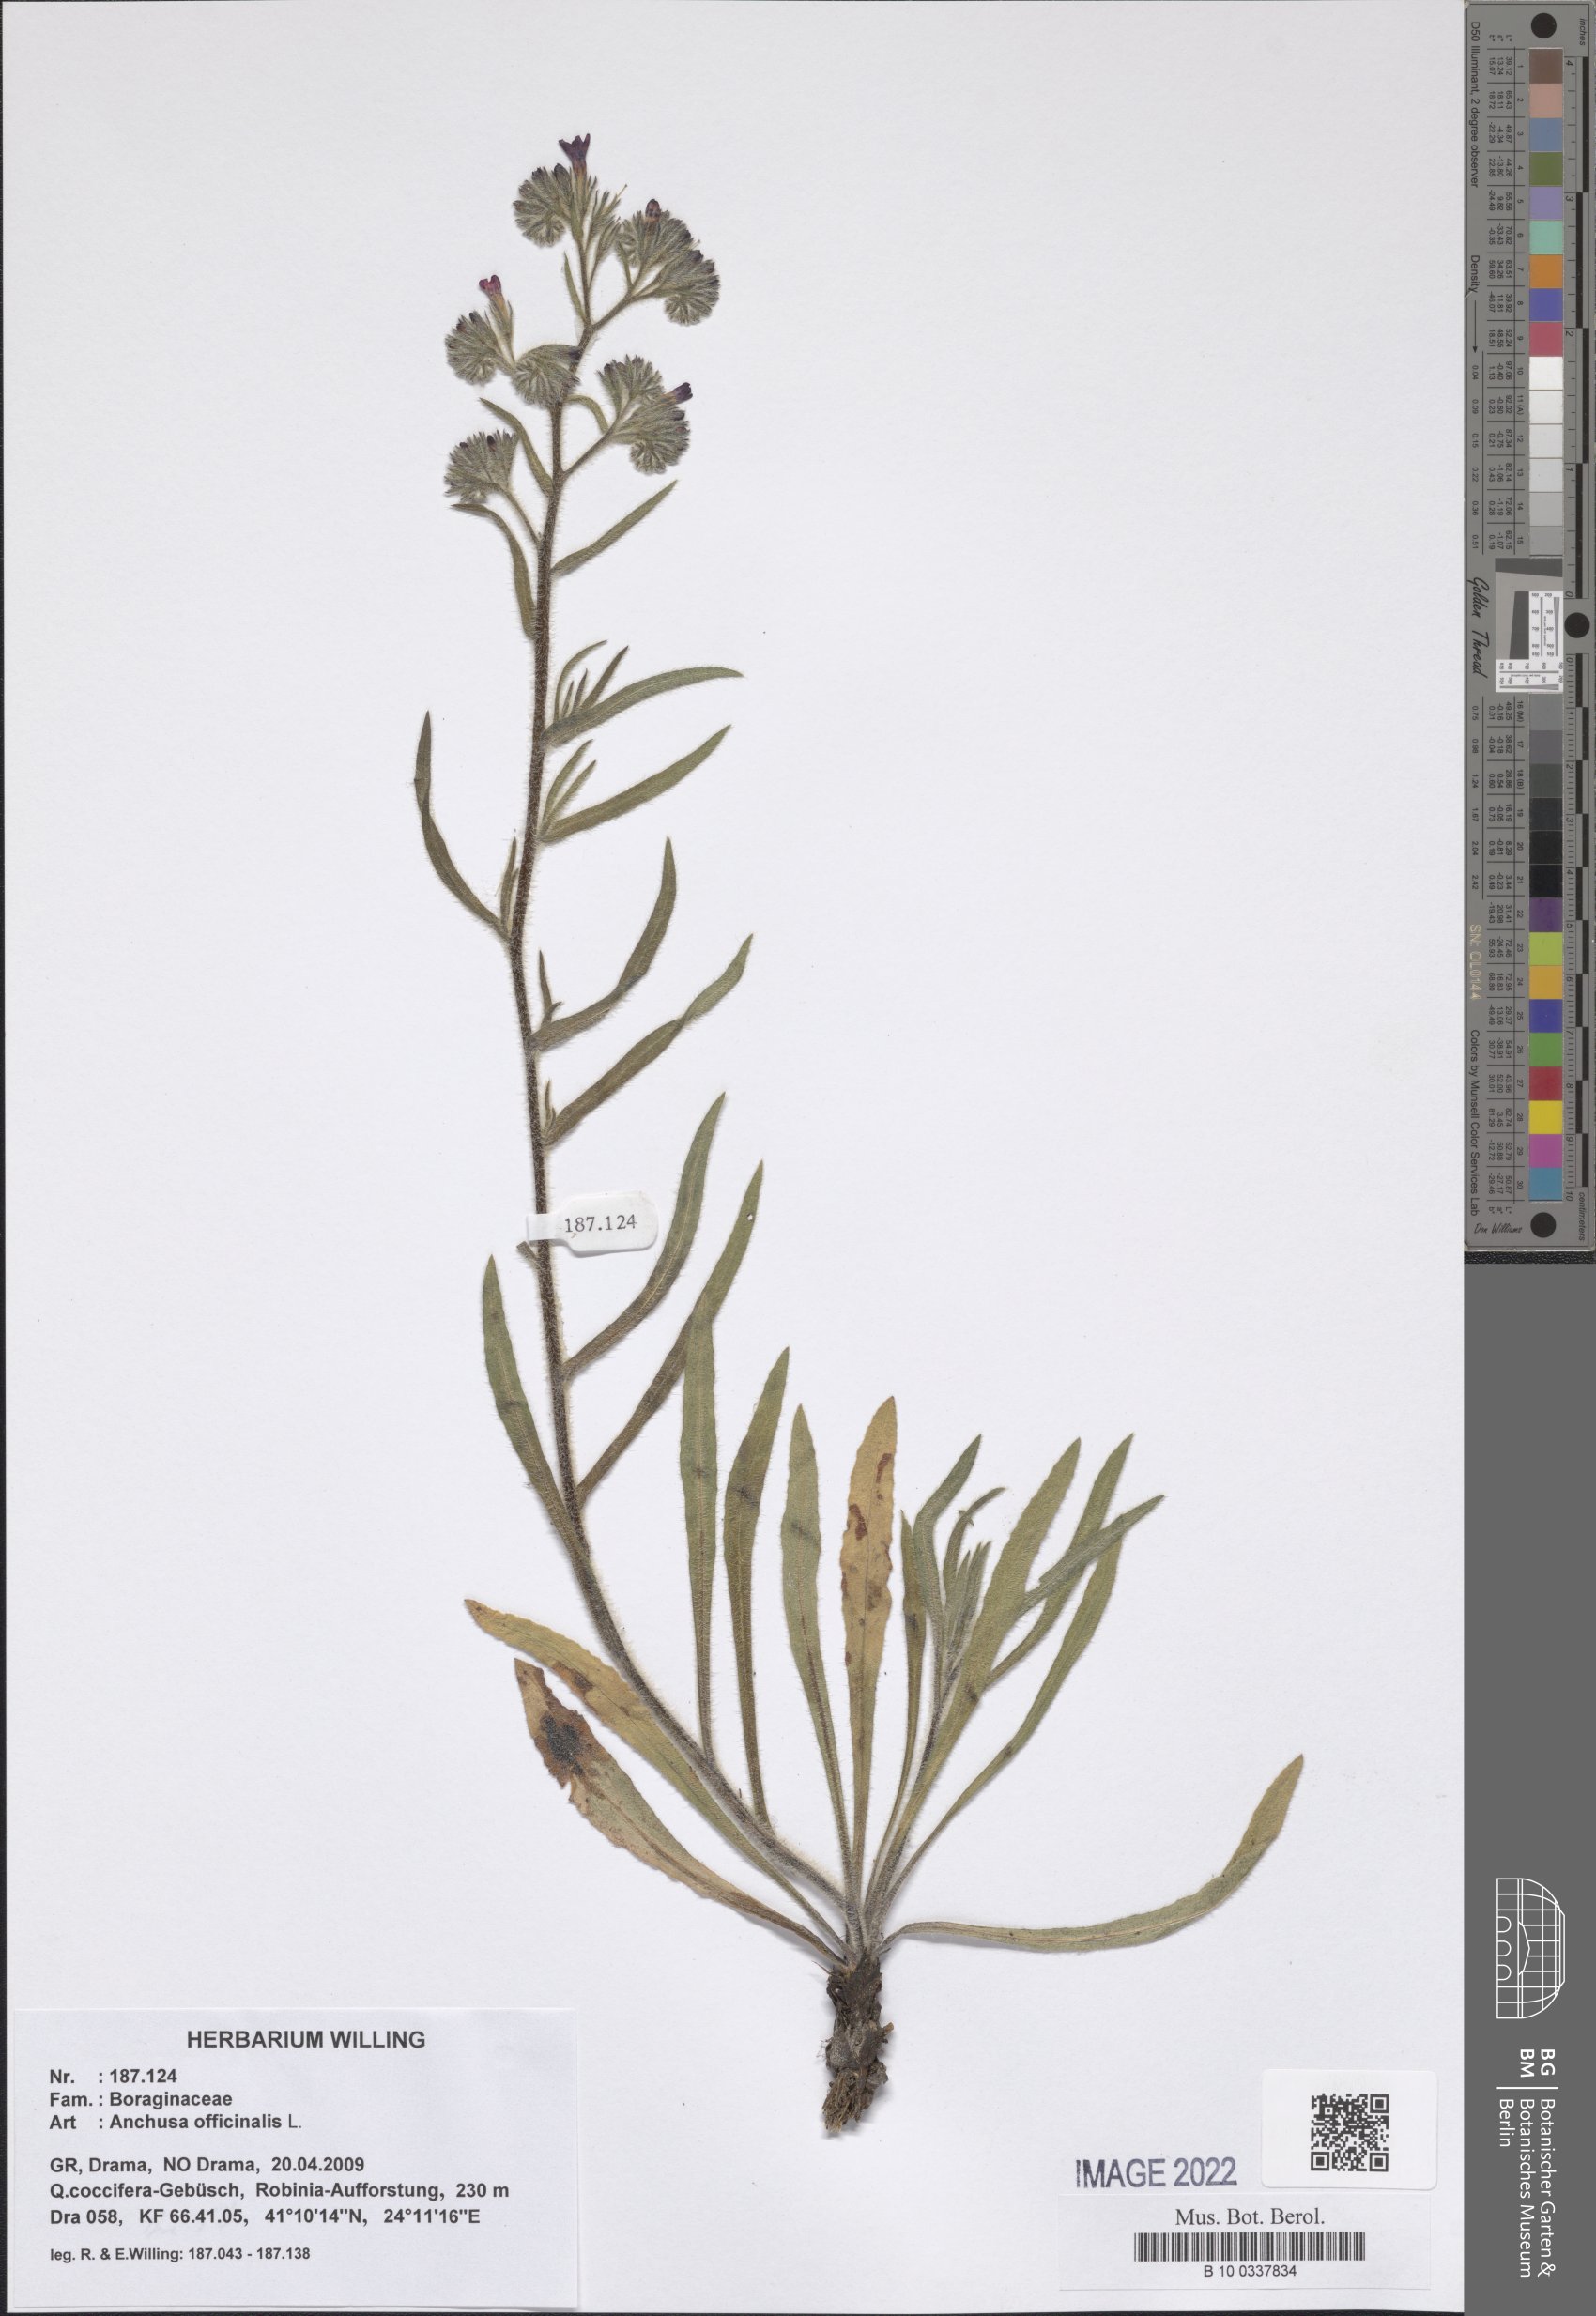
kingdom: Plantae
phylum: Tracheophyta
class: Magnoliopsida
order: Boraginales
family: Boraginaceae
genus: Anchusa
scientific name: Anchusa officinalis
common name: Alkanet
